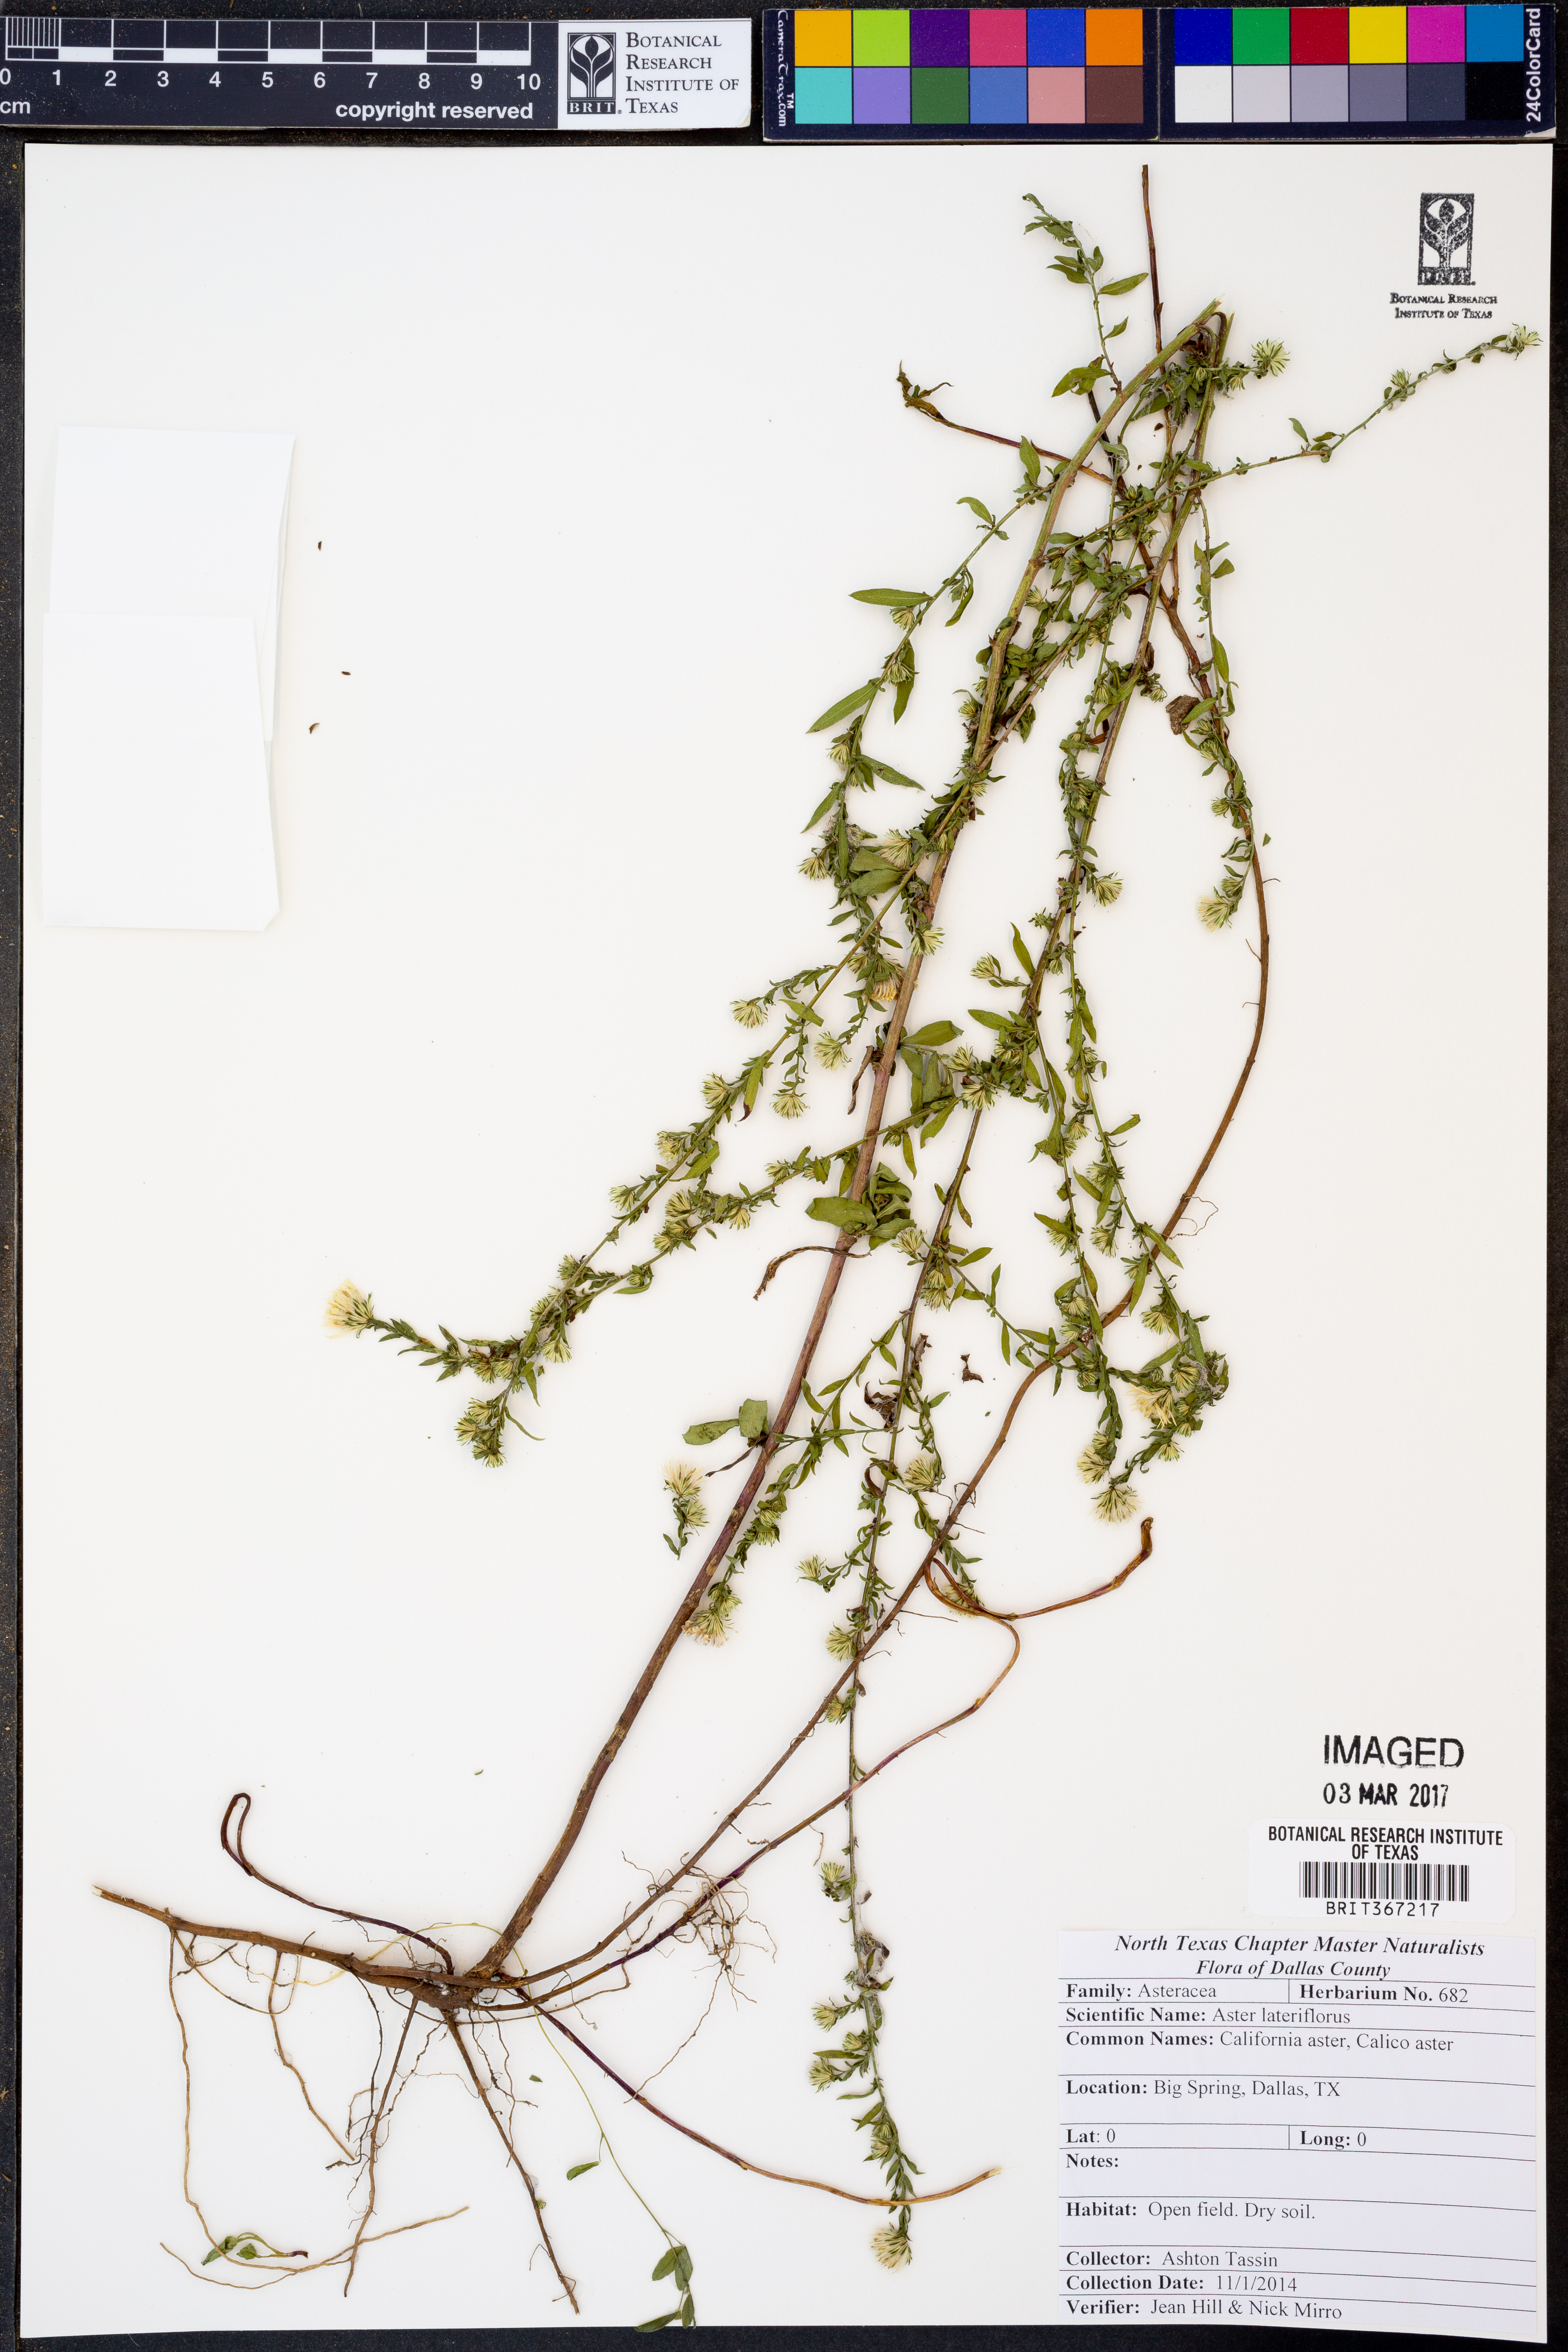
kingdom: Plantae
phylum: Tracheophyta
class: Magnoliopsida
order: Asterales
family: Asteraceae
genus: Symphyotrichum
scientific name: Symphyotrichum lateriflorum
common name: Calico aster
